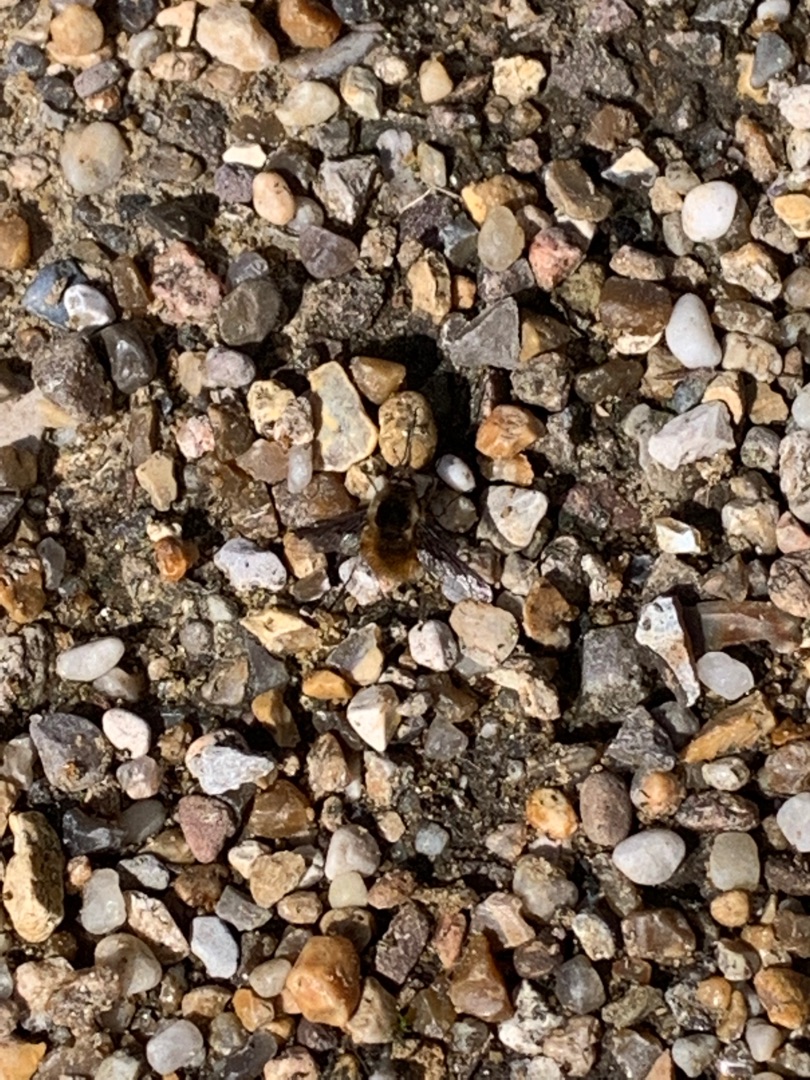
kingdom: Animalia
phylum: Arthropoda
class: Insecta
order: Diptera
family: Bombyliidae
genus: Bombylius
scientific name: Bombylius major
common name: Stor humleflue
